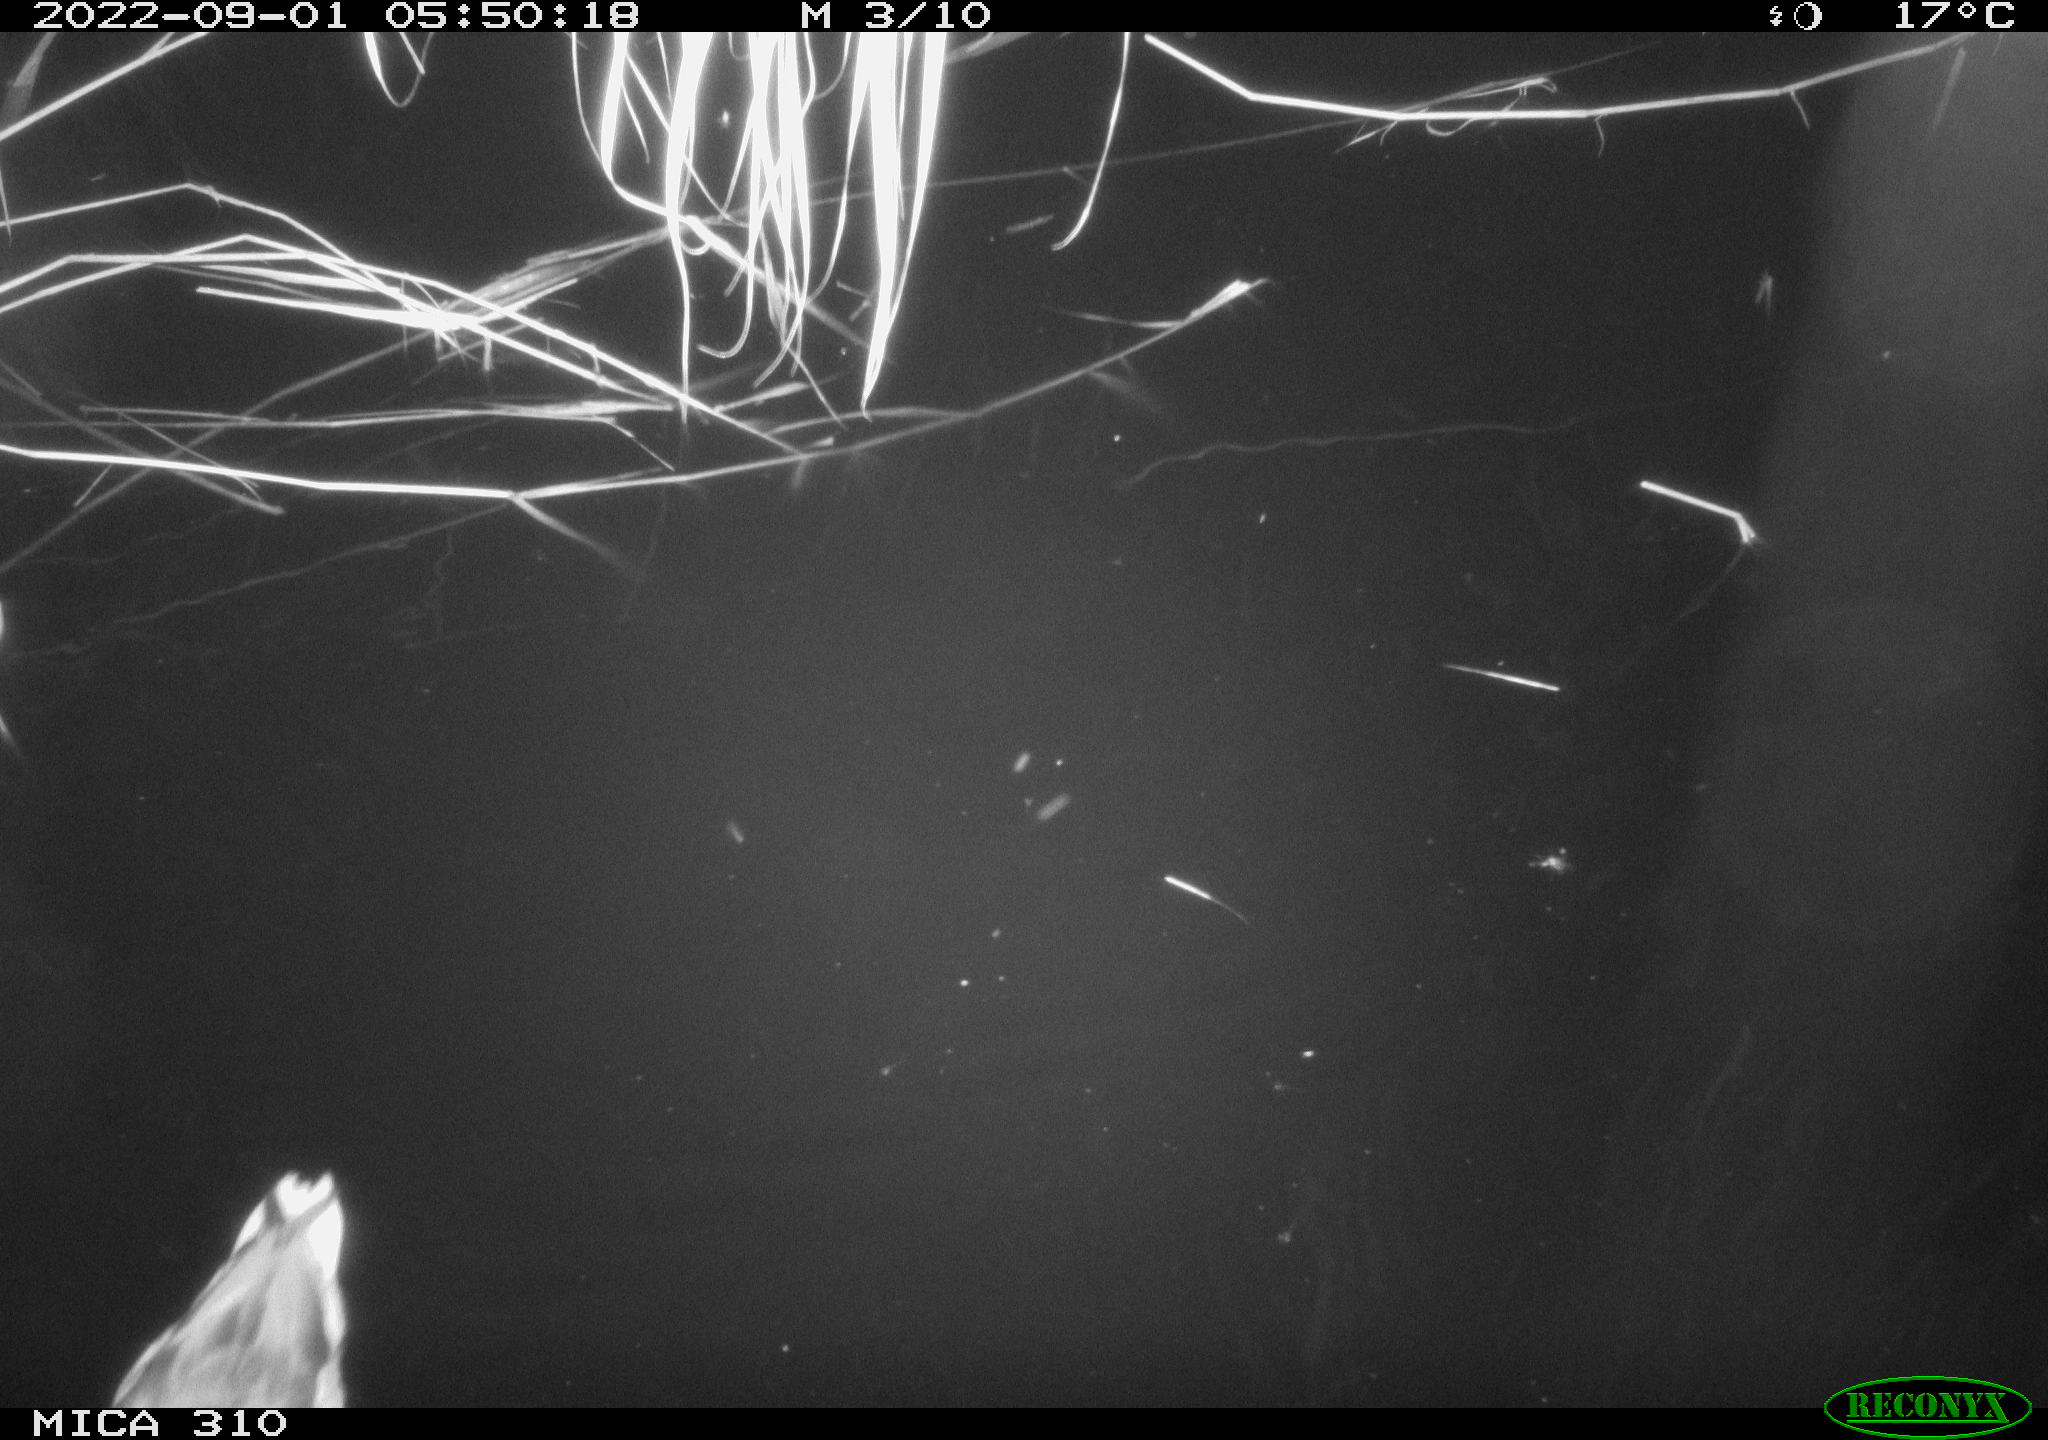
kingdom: Animalia
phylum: Chordata
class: Aves
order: Anseriformes
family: Anatidae
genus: Anas
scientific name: Anas platyrhynchos
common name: Mallard
